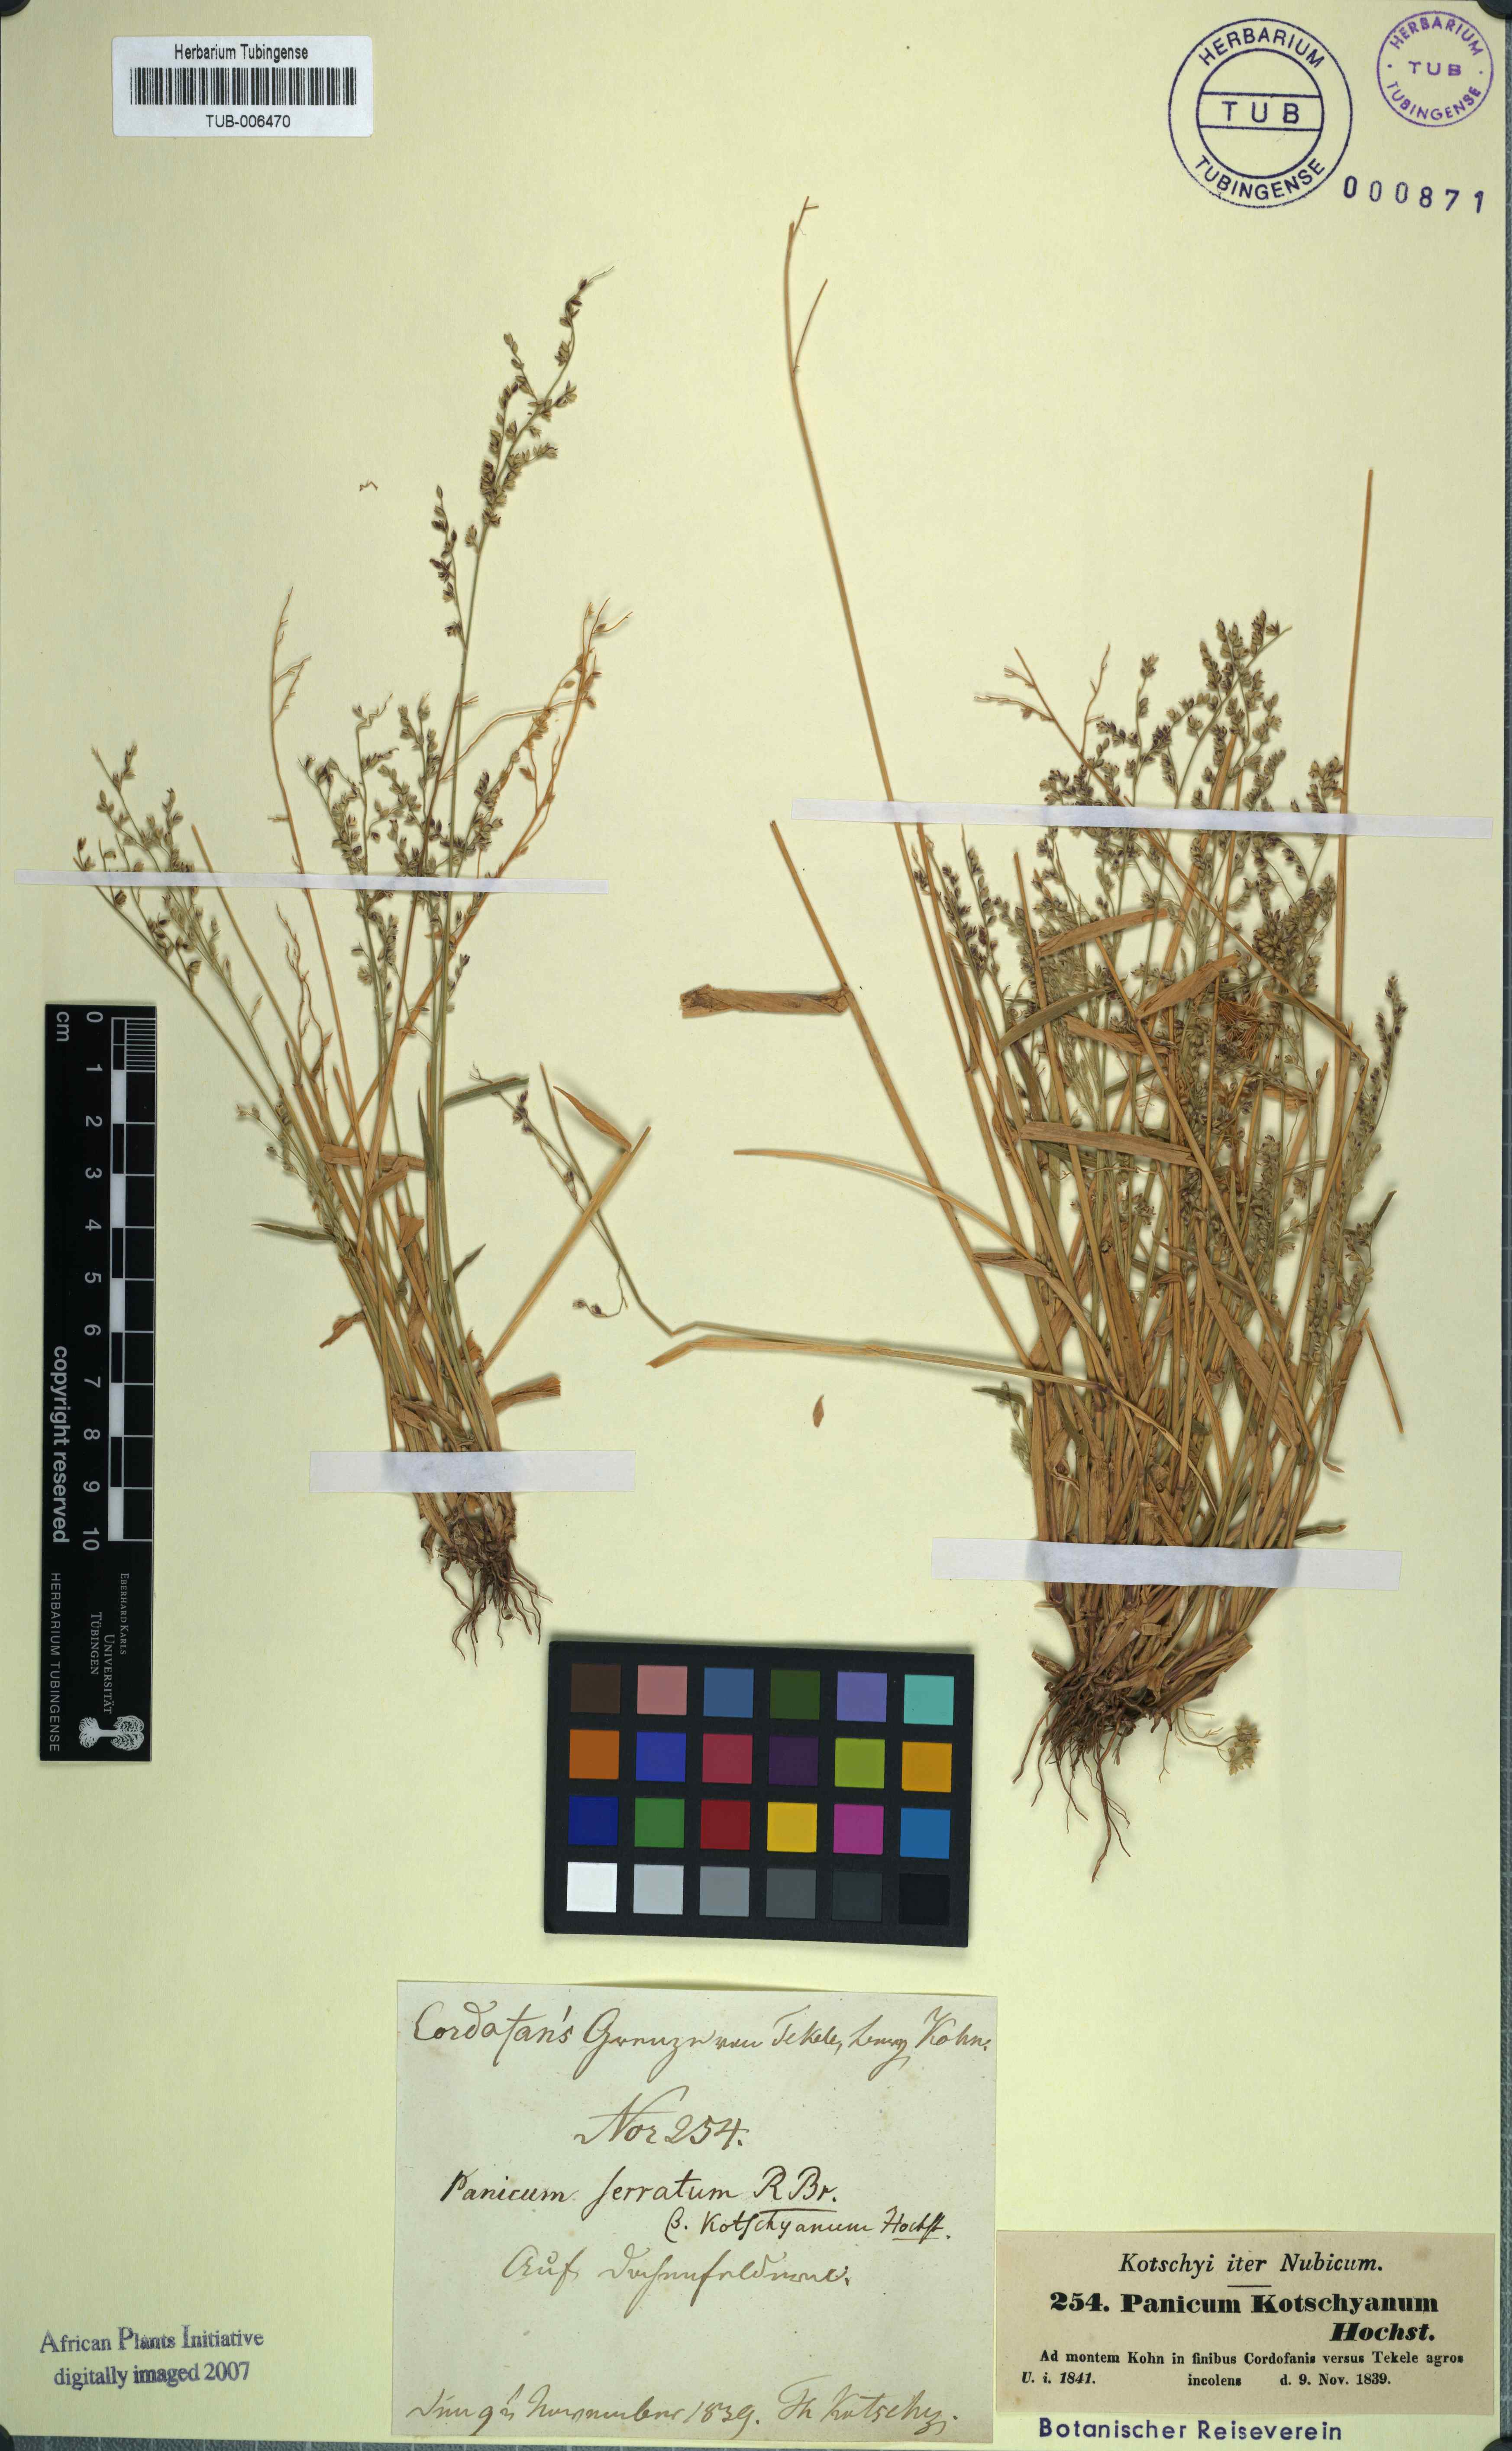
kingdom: Plantae
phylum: Tracheophyta
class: Liliopsida
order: Poales
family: Poaceae
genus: Urochloa
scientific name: Urochloa ramosa
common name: Browntop millet
